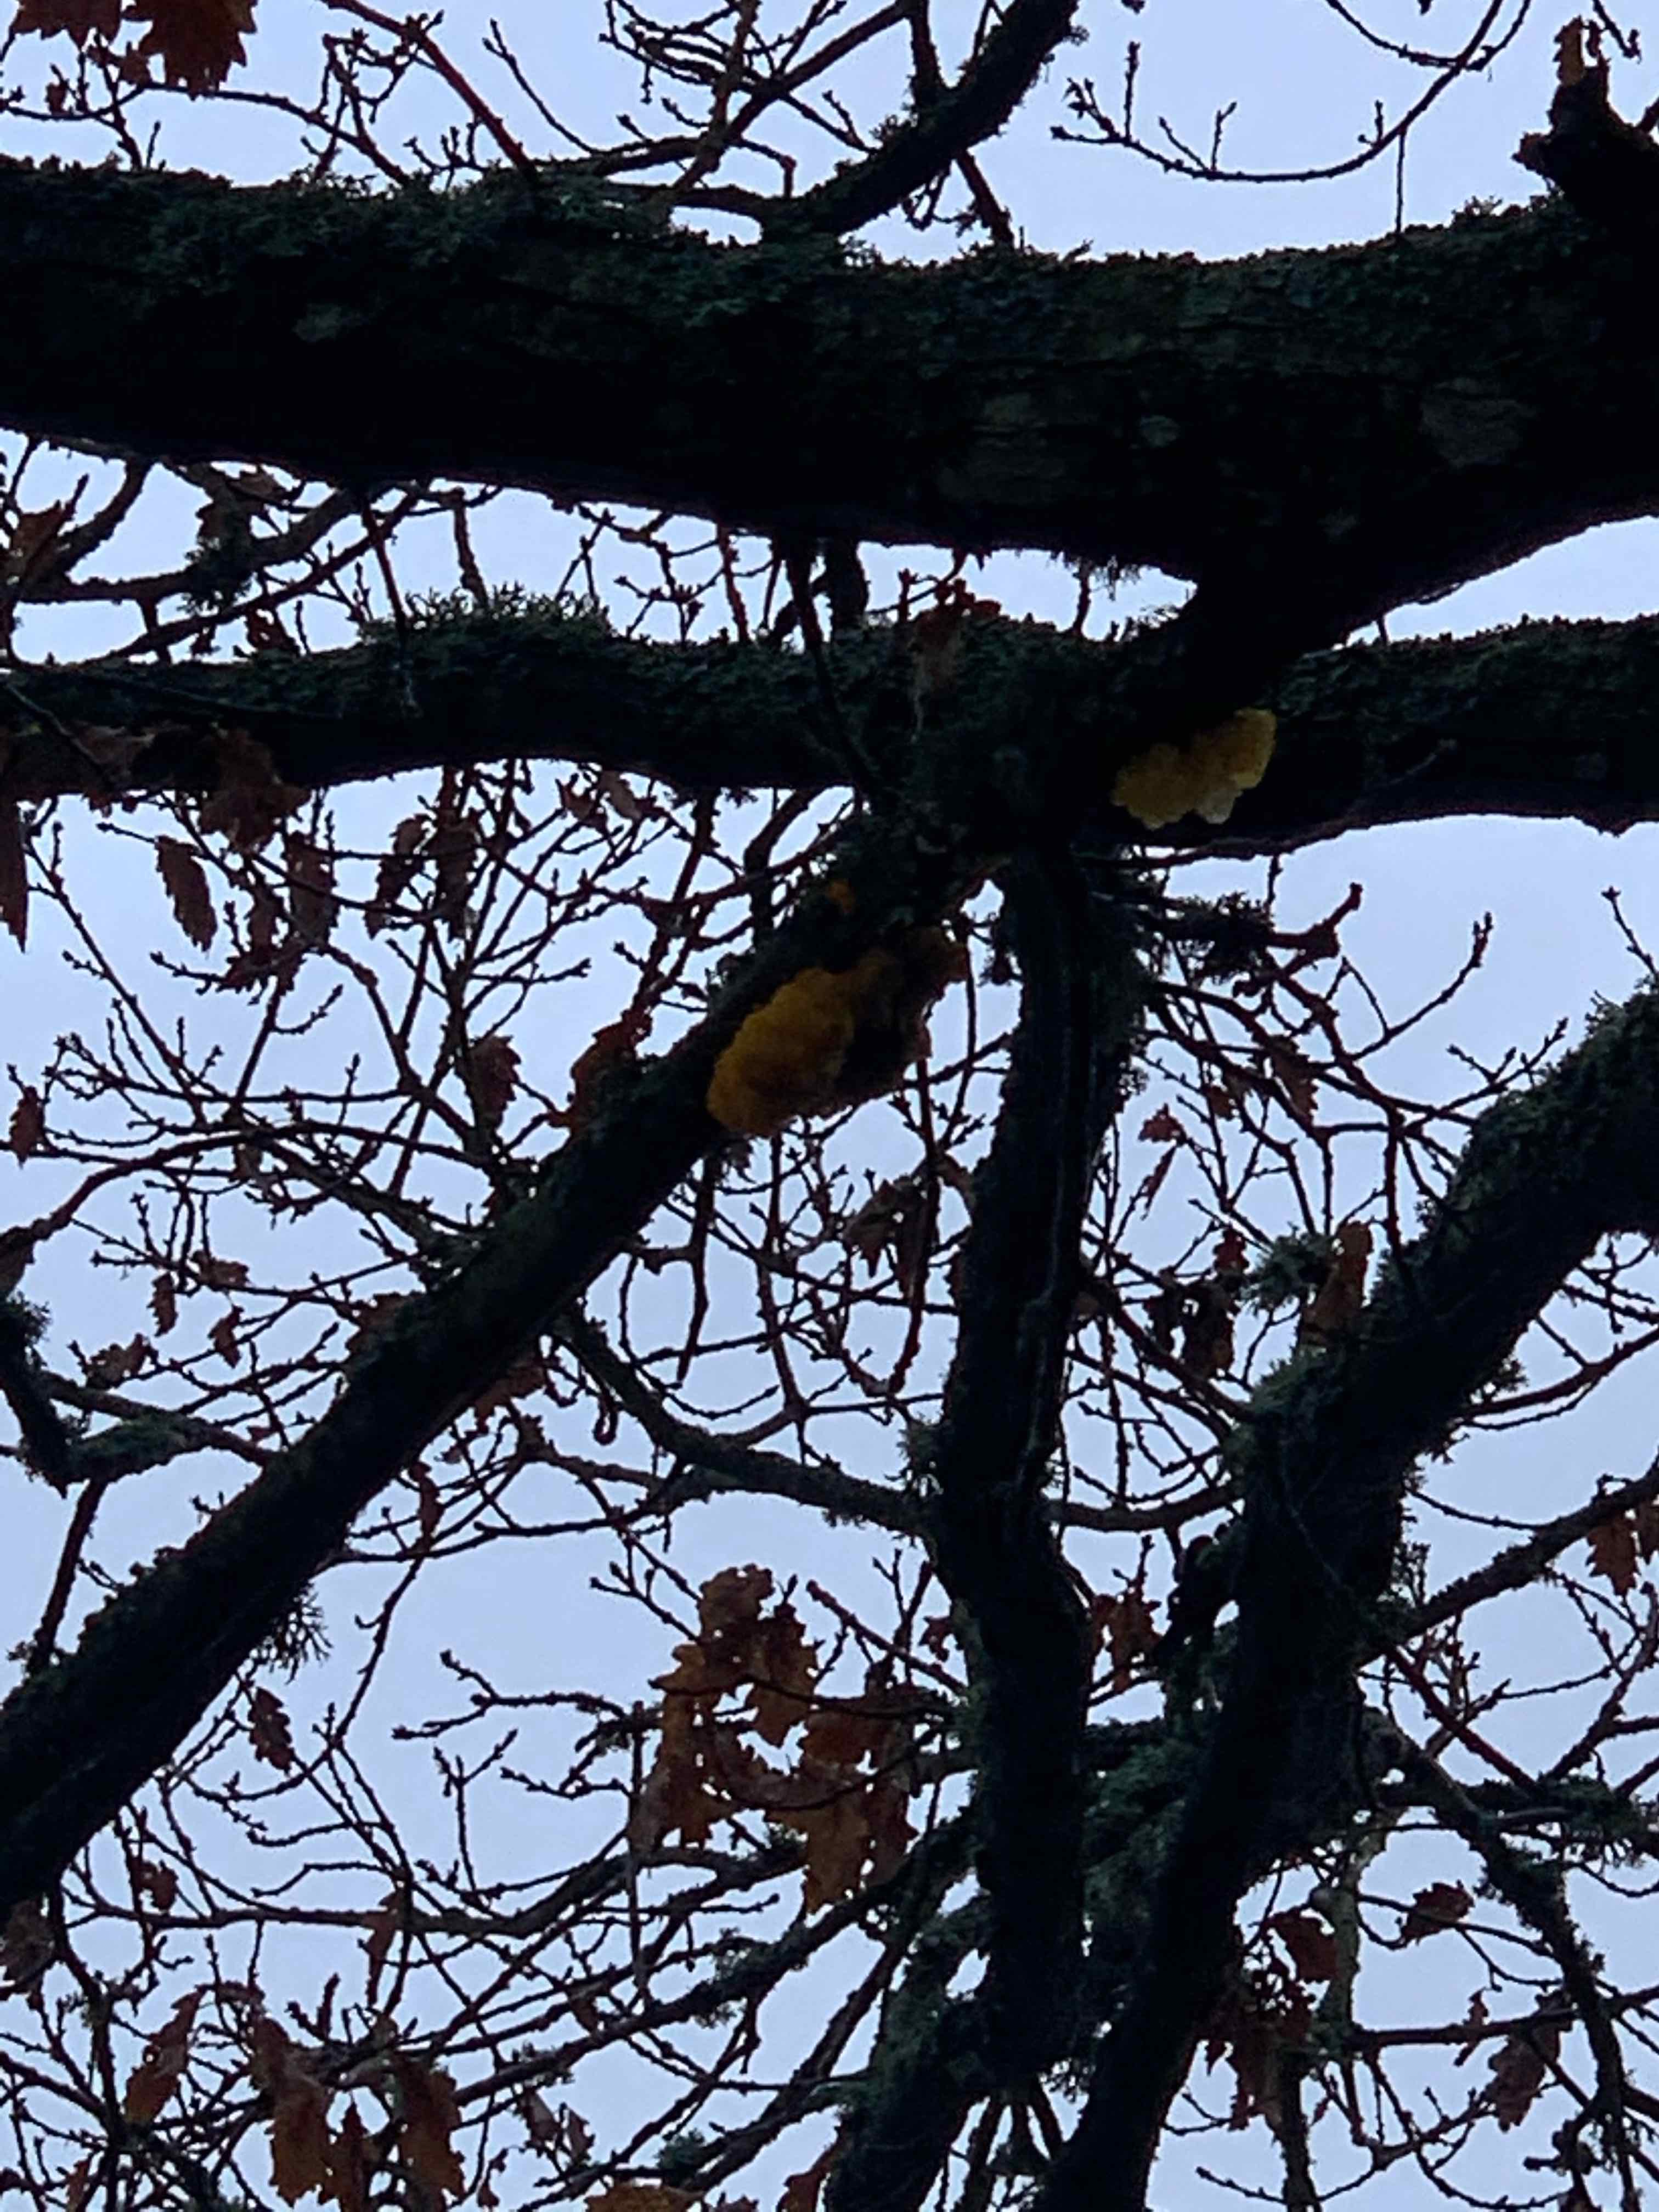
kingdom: Fungi
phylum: Basidiomycota
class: Tremellomycetes
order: Tremellales
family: Tremellaceae
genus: Tremella
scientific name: Tremella mesenterica
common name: gul bævresvamp
